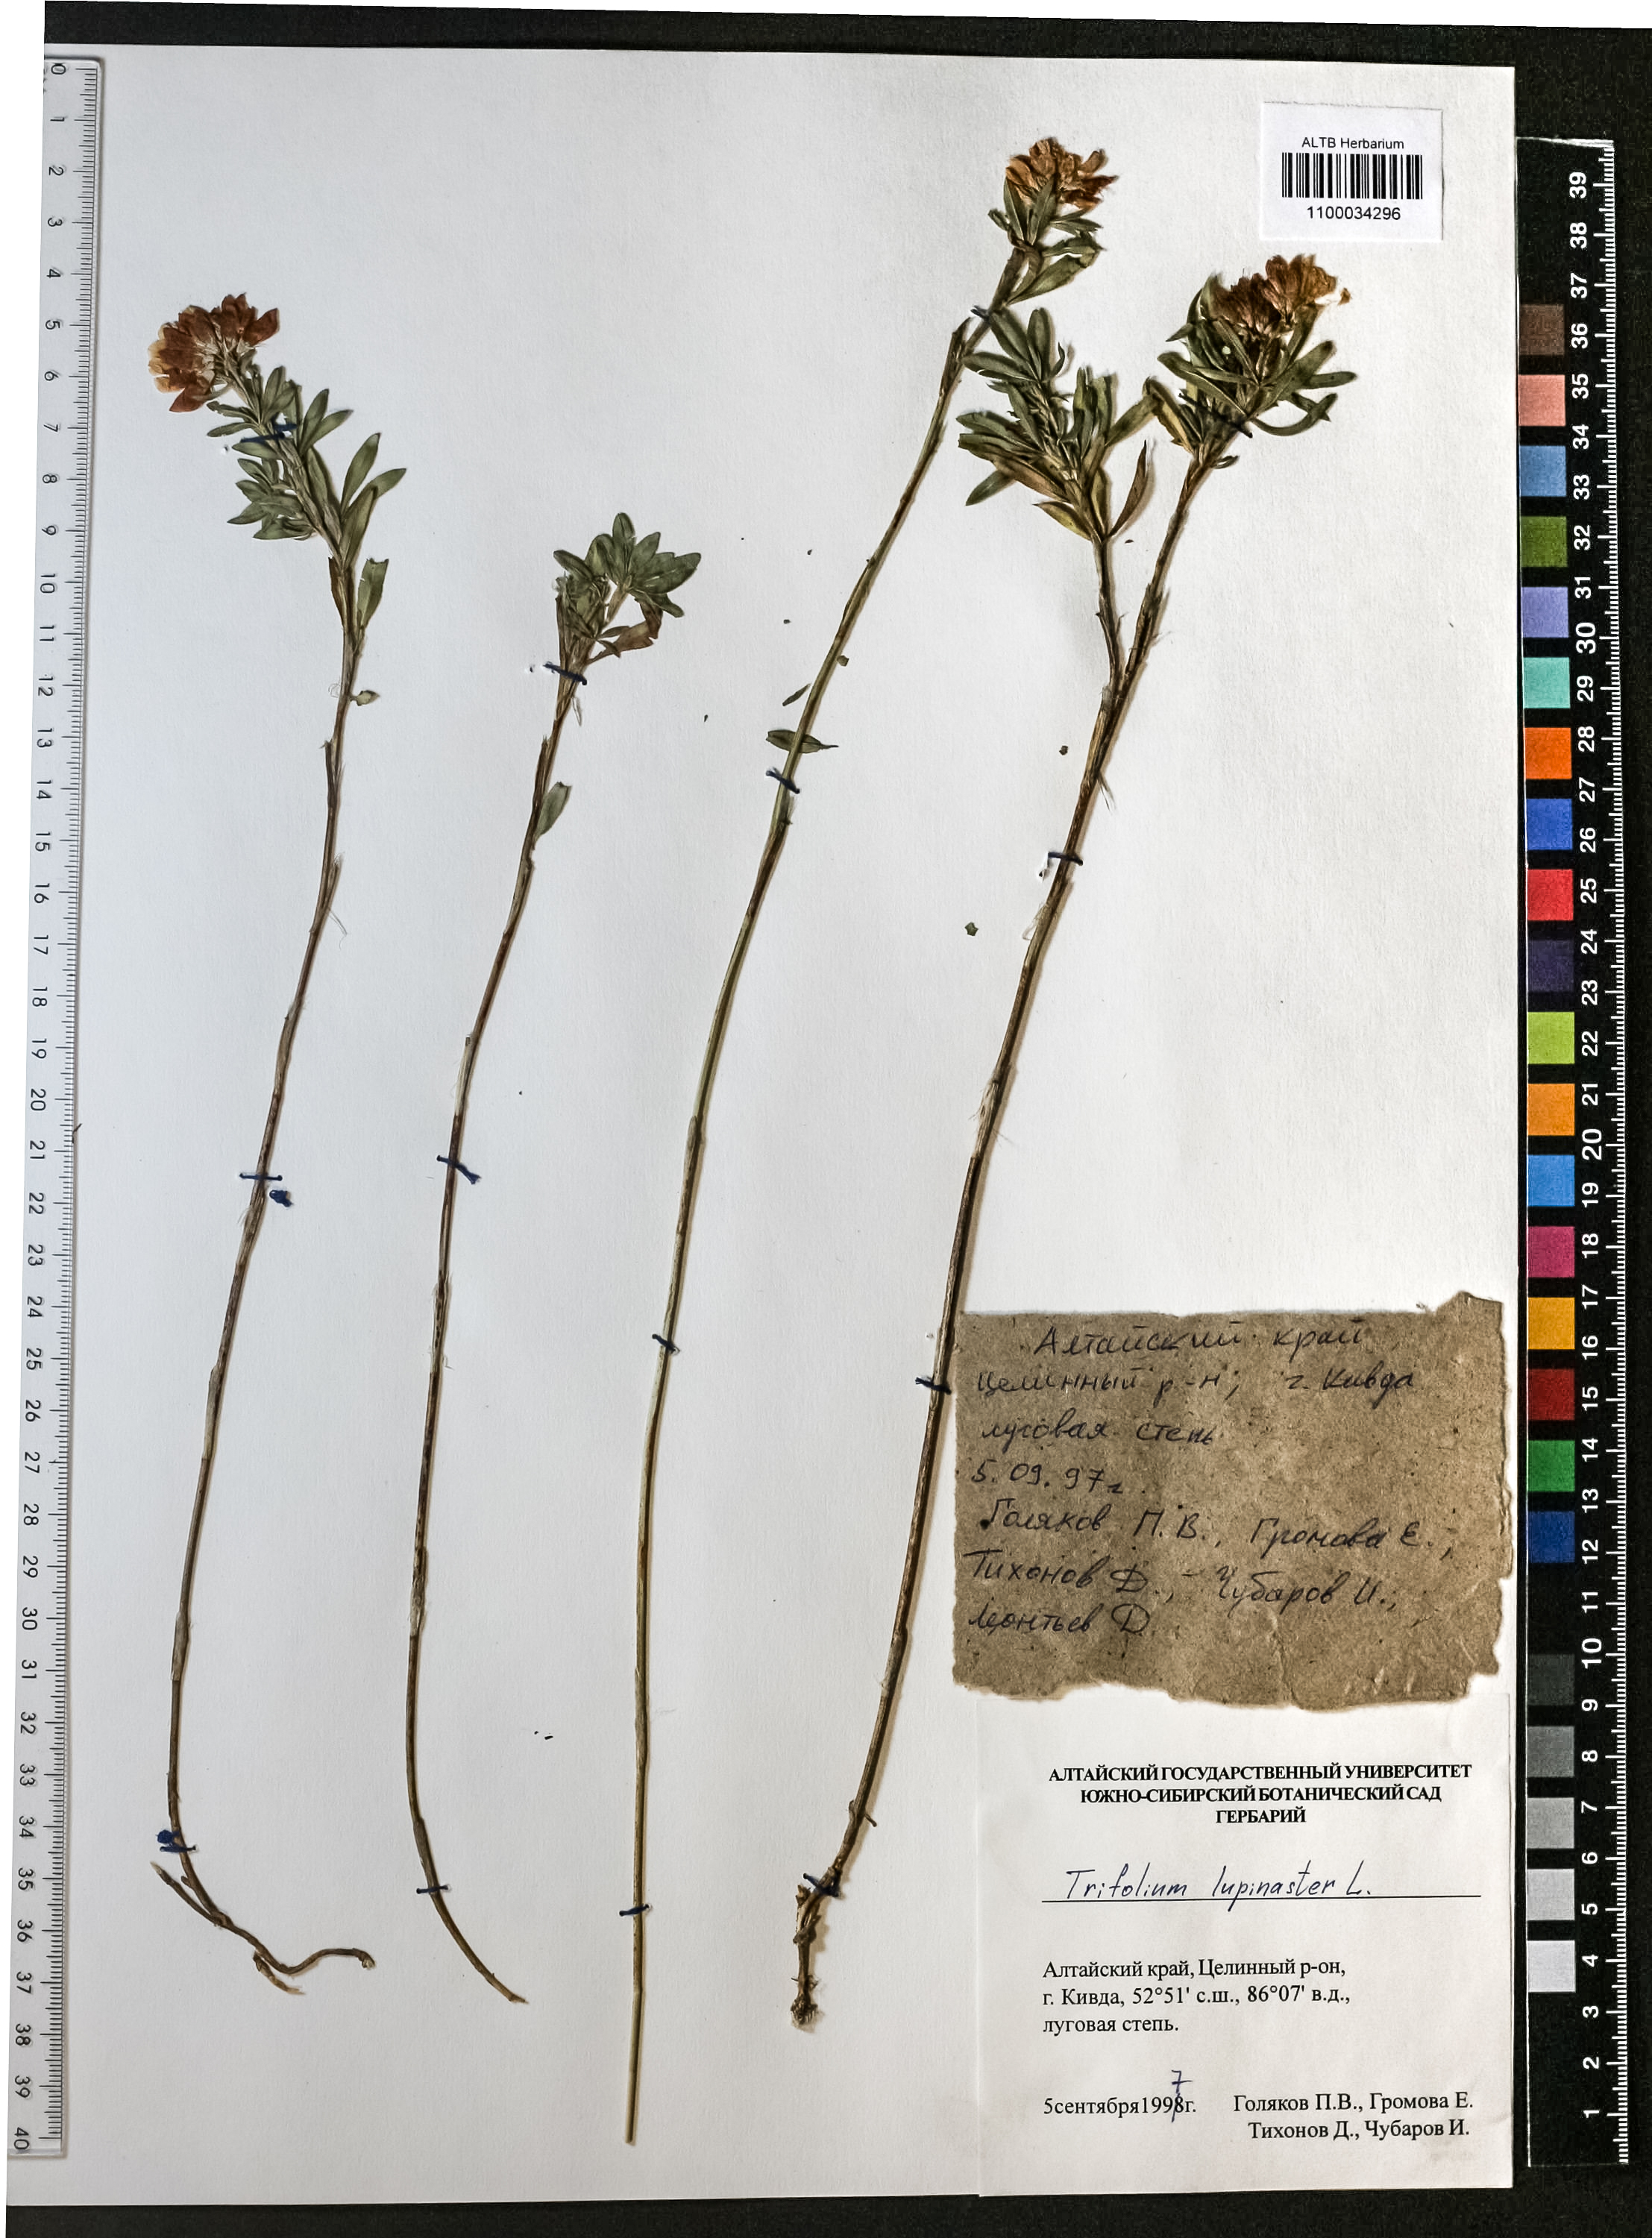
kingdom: Plantae
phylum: Tracheophyta
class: Magnoliopsida
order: Fabales
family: Fabaceae
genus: Trifolium
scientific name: Trifolium lupinaster
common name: Lupine clover
